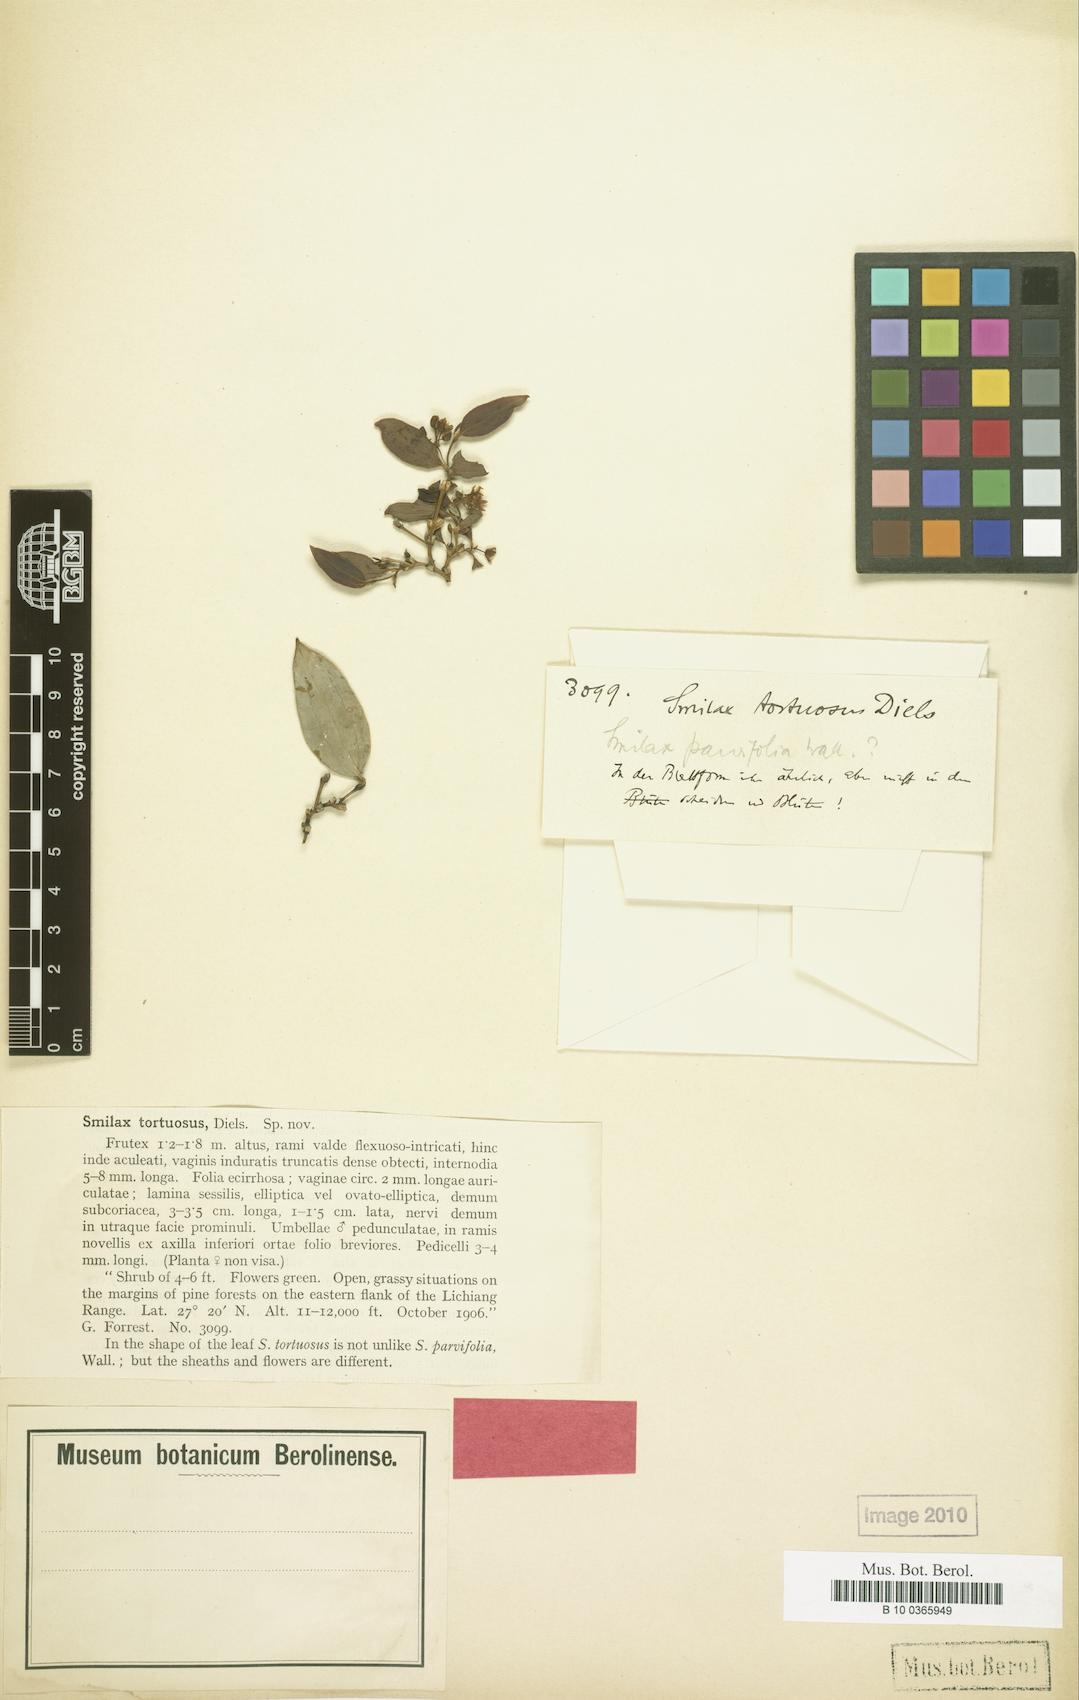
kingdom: Plantae
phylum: Tracheophyta
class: Liliopsida
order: Liliales
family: Smilacaceae
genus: Smilax
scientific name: Smilax megalantha
